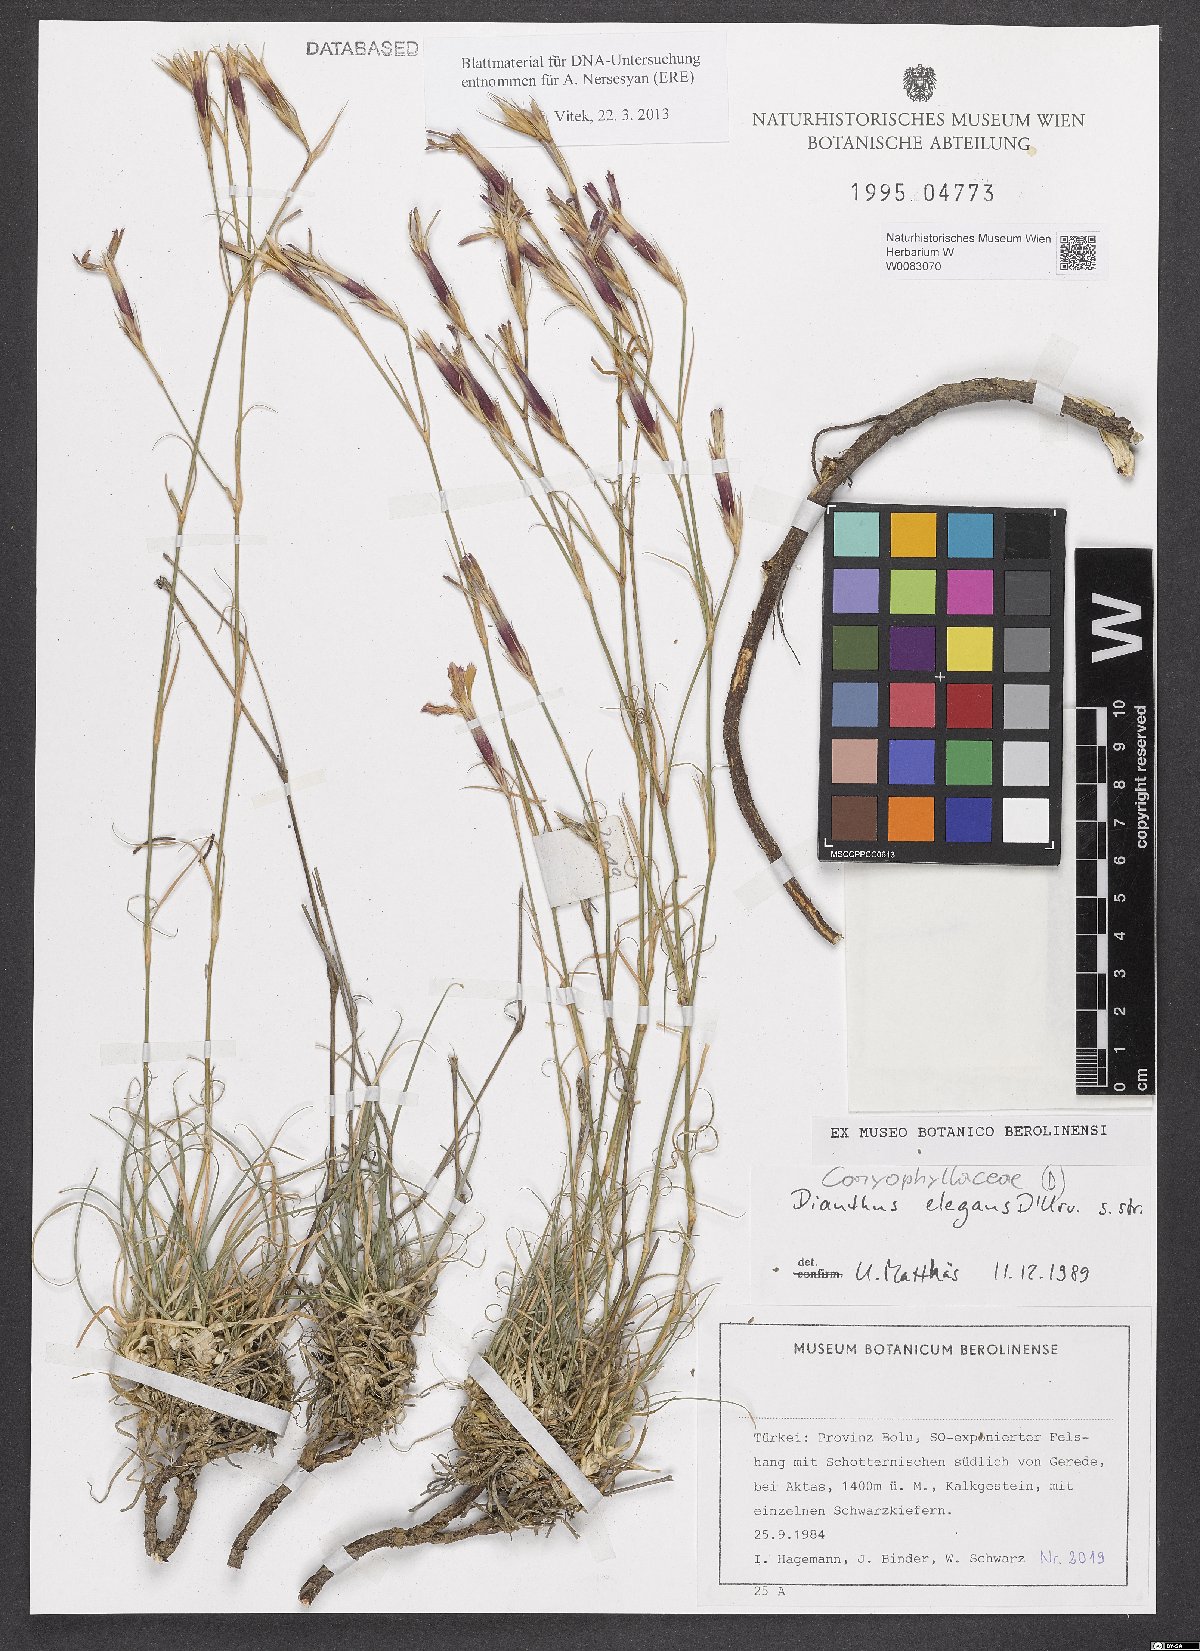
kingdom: Plantae
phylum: Tracheophyta
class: Magnoliopsida
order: Caryophyllales
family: Caryophyllaceae
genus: Dianthus
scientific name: Dianthus elegans
